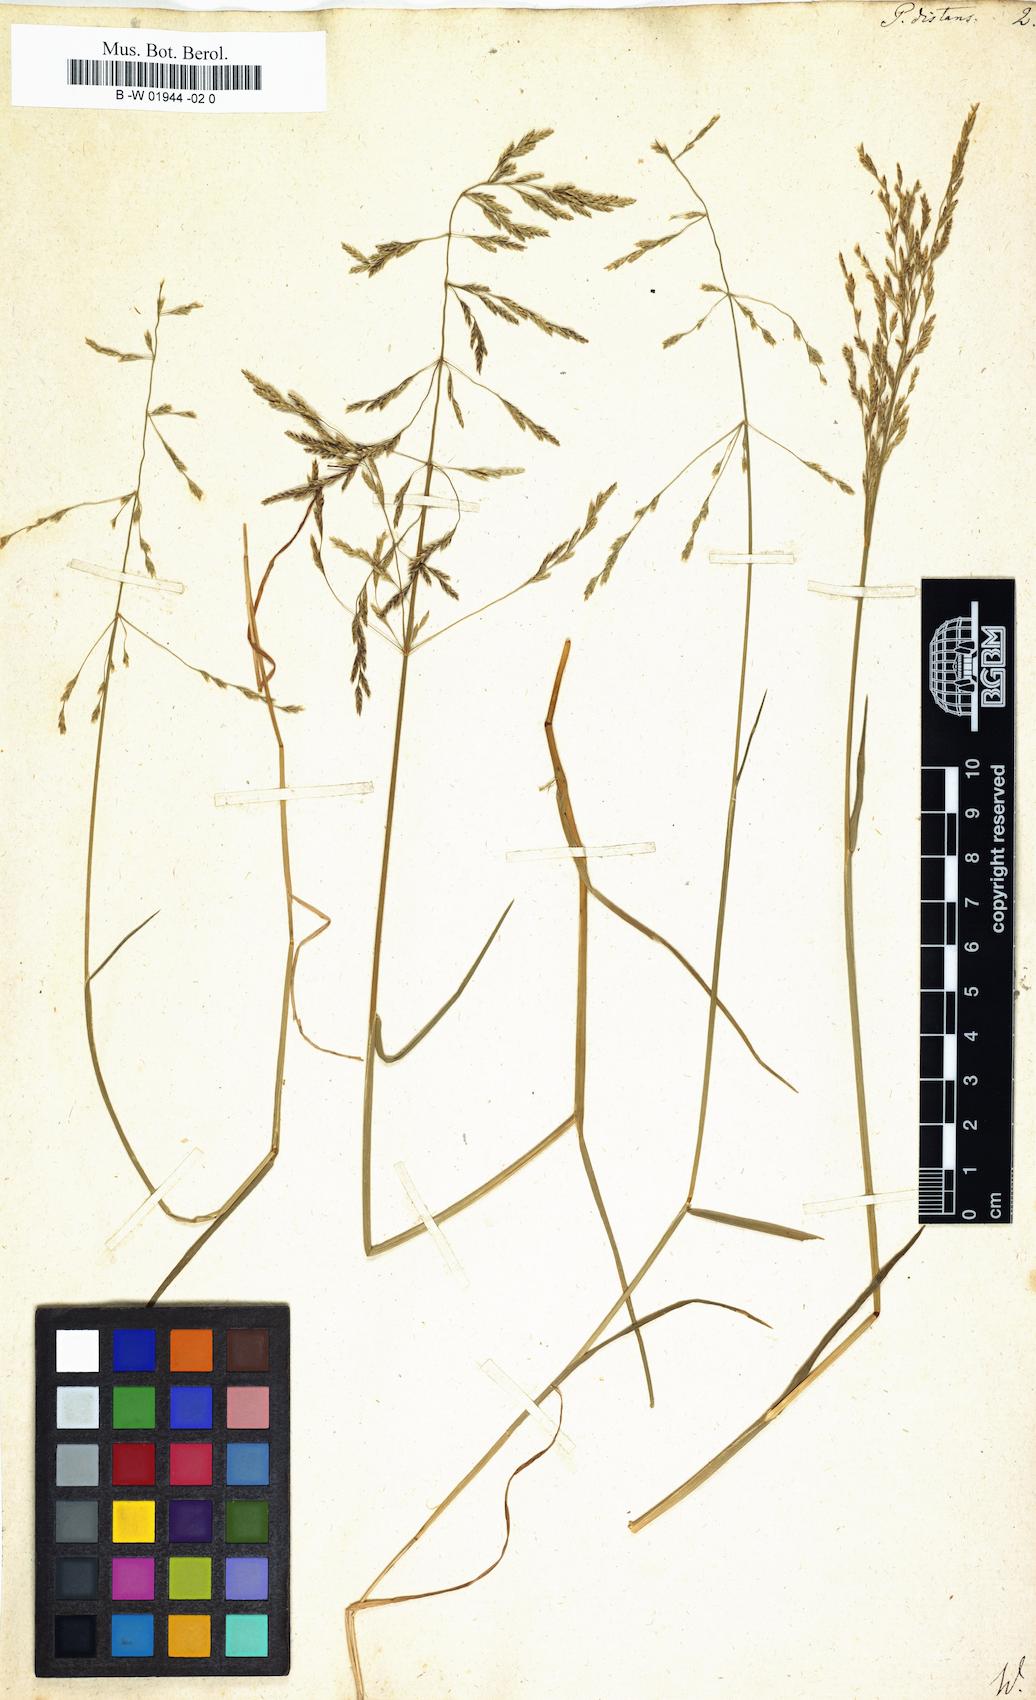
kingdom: Plantae
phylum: Tracheophyta
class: Liliopsida
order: Poales
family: Poaceae
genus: Poa
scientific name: Poa distans
